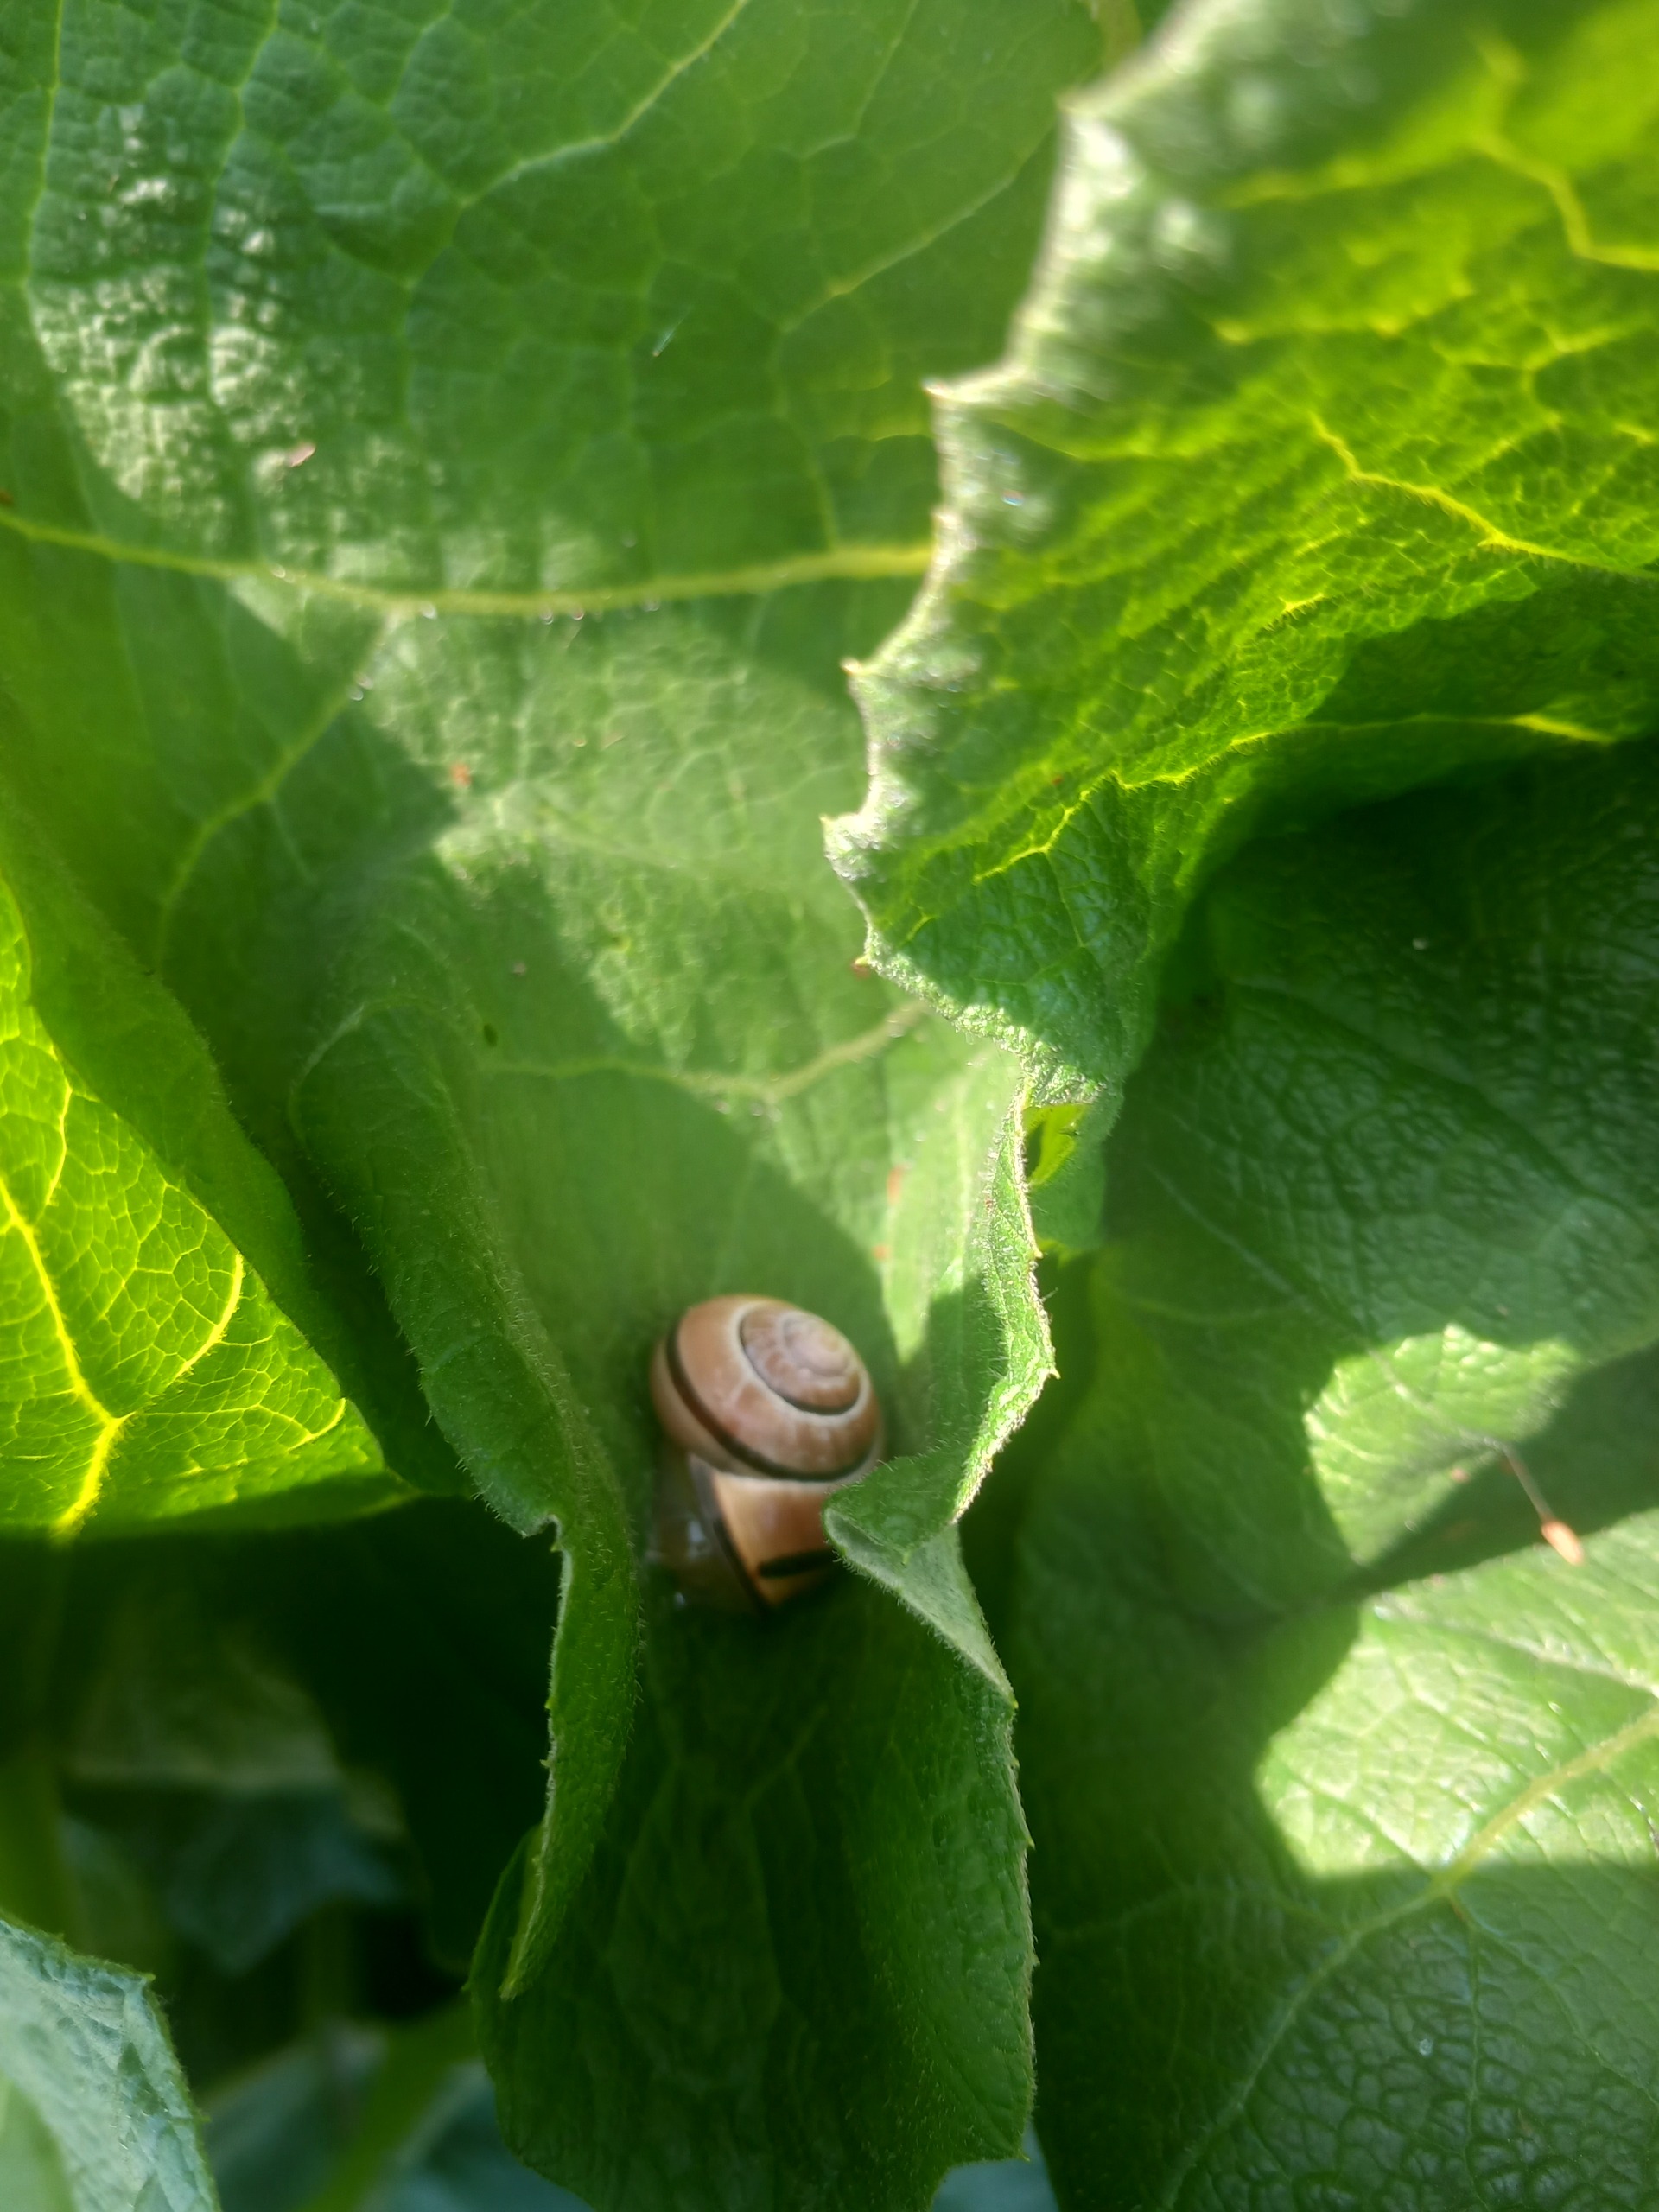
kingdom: Animalia
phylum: Mollusca
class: Gastropoda
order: Stylommatophora
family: Helicidae
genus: Cepaea
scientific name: Cepaea nemoralis
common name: Lundsnegl
